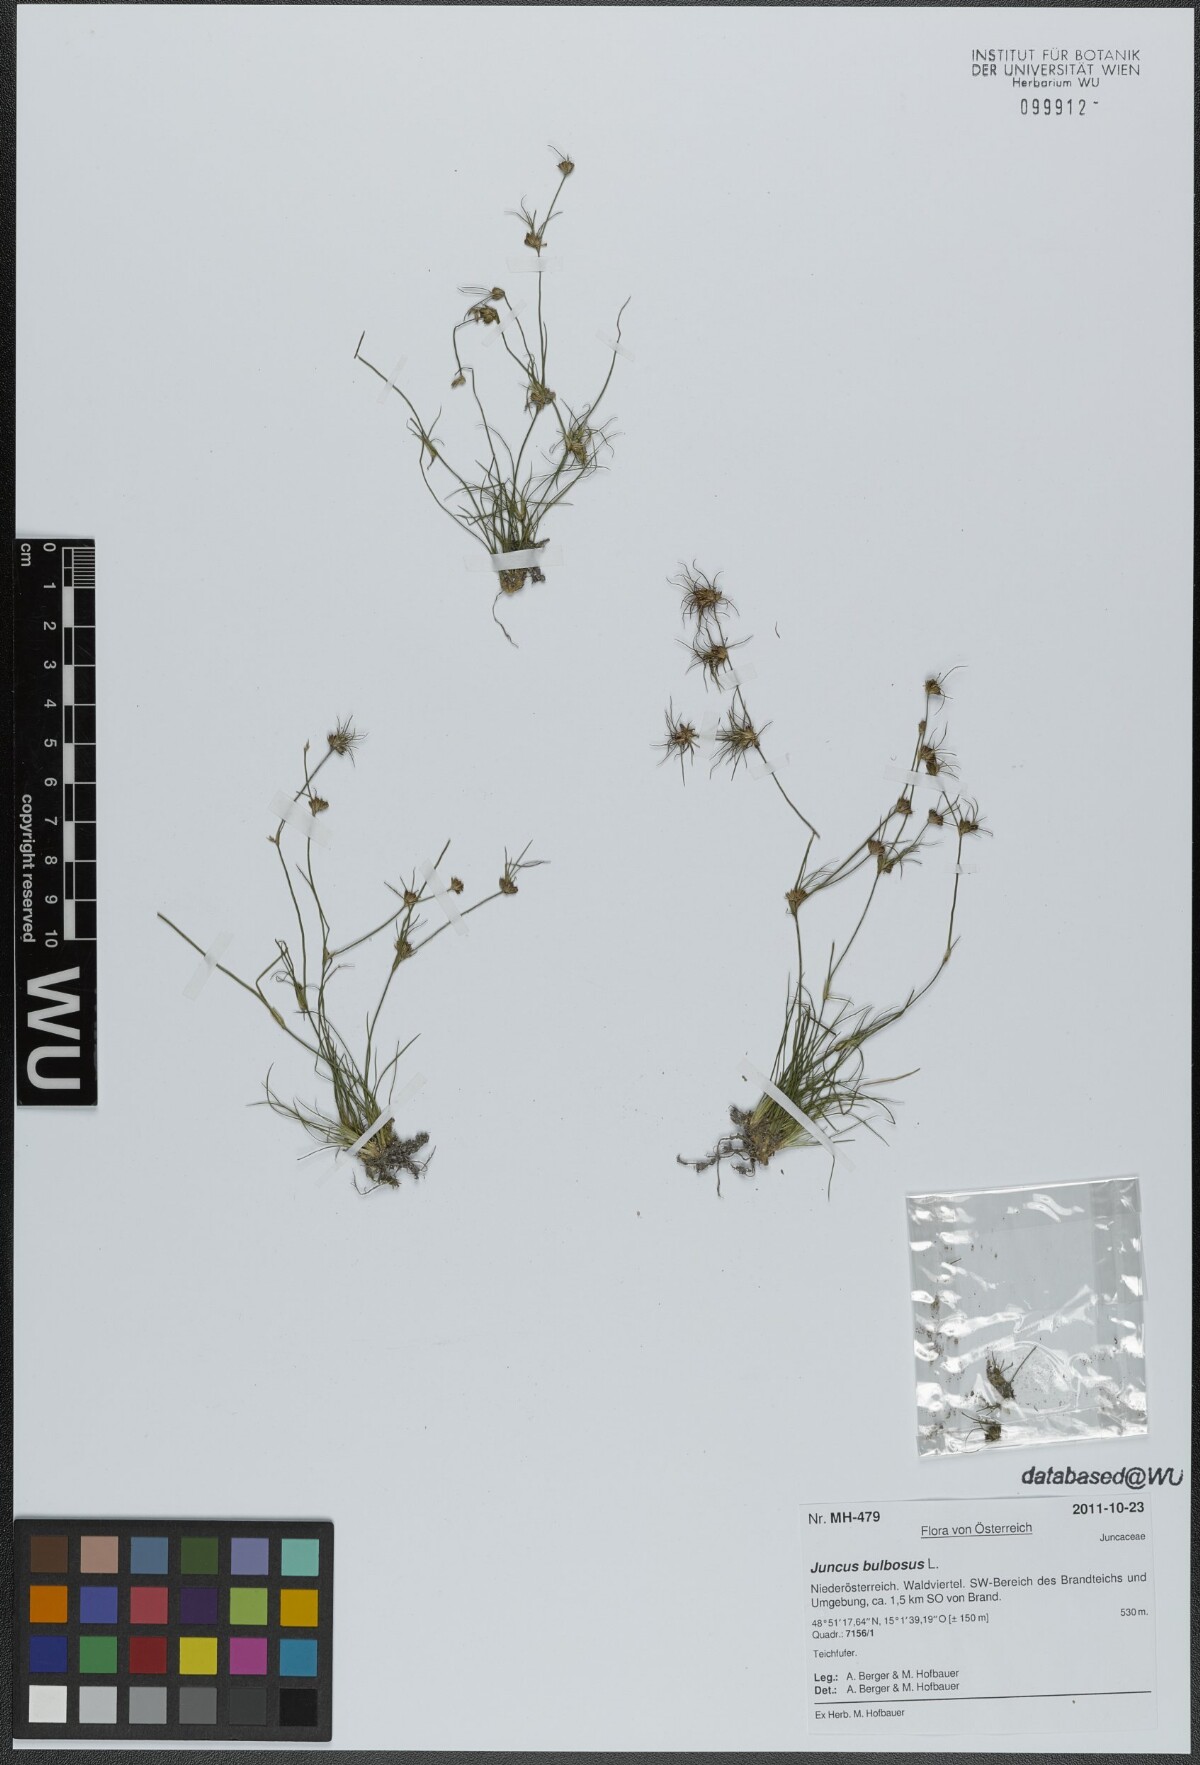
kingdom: Plantae
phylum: Tracheophyta
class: Liliopsida
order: Poales
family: Juncaceae
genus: Juncus
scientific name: Juncus bulbosus
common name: Bulbous rush
